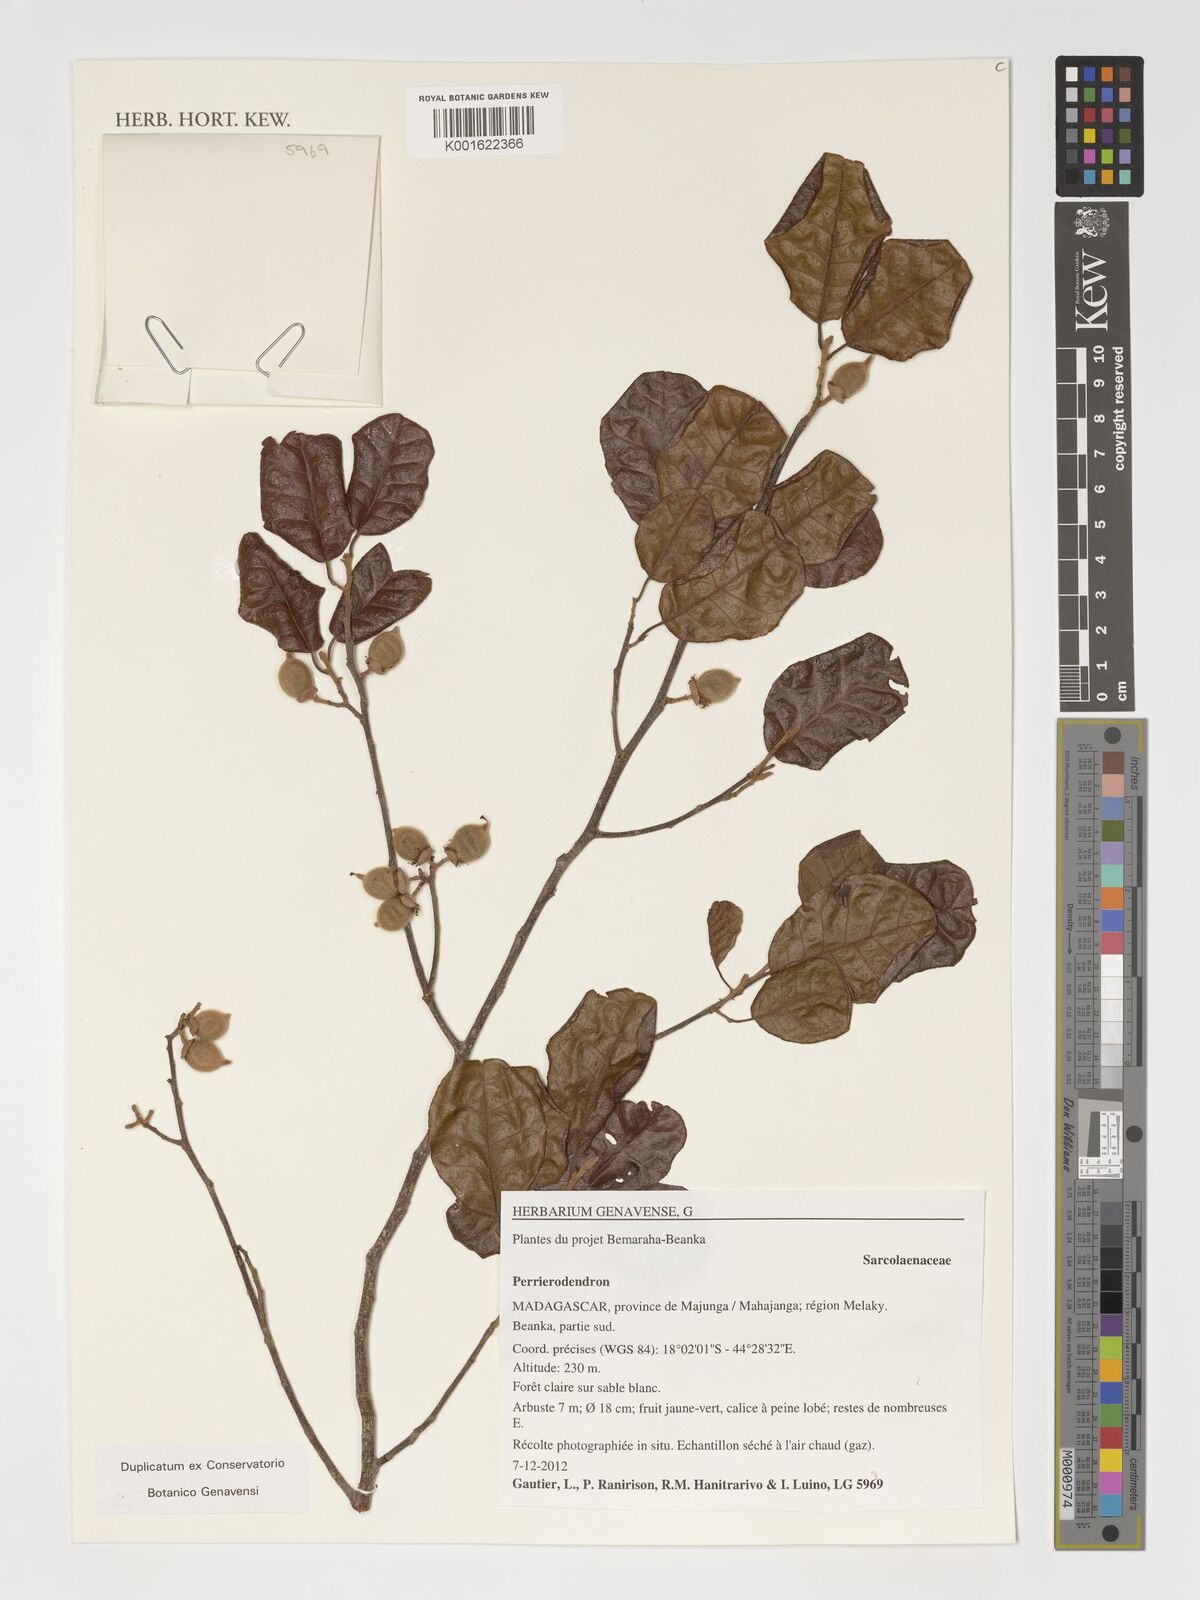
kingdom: Plantae
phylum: Tracheophyta
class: Magnoliopsida
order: Malvales
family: Sarcolaenaceae
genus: Perrierodendron
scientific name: Perrierodendron
